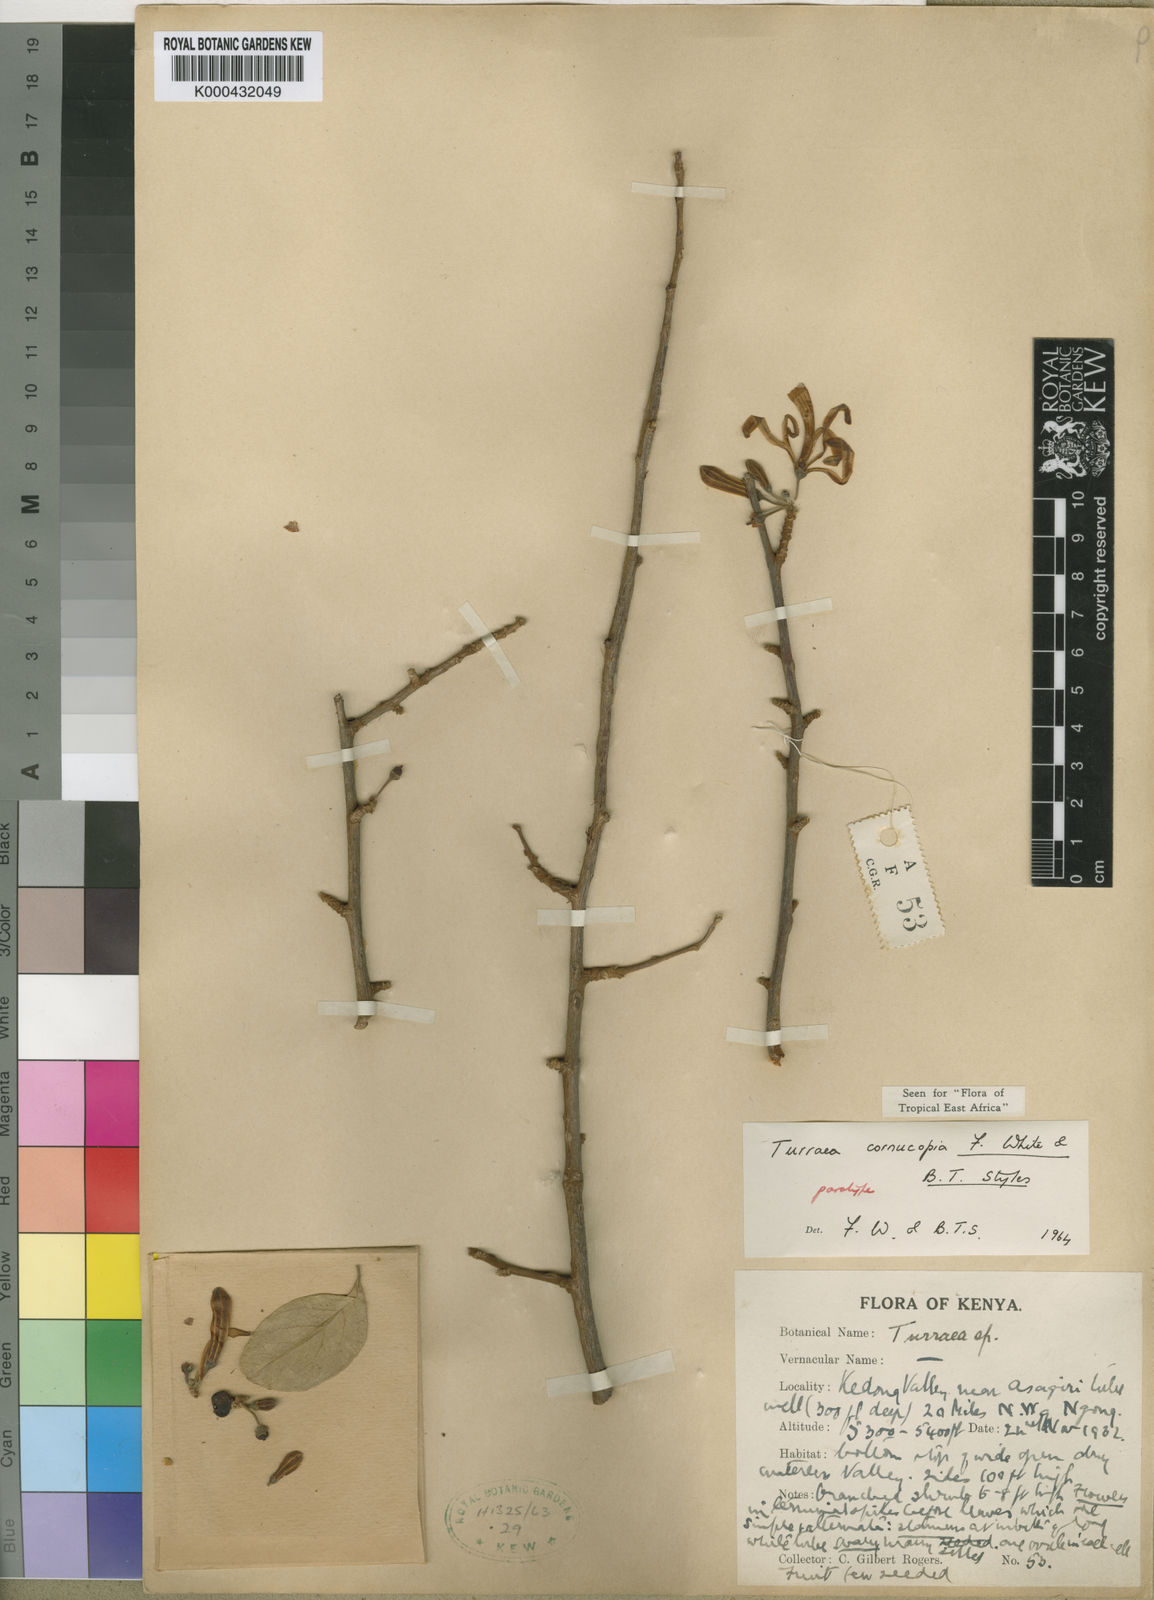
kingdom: Plantae
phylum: Tracheophyta
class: Magnoliopsida
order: Sapindales
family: Meliaceae
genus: Turraea
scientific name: Turraea cornucopia
